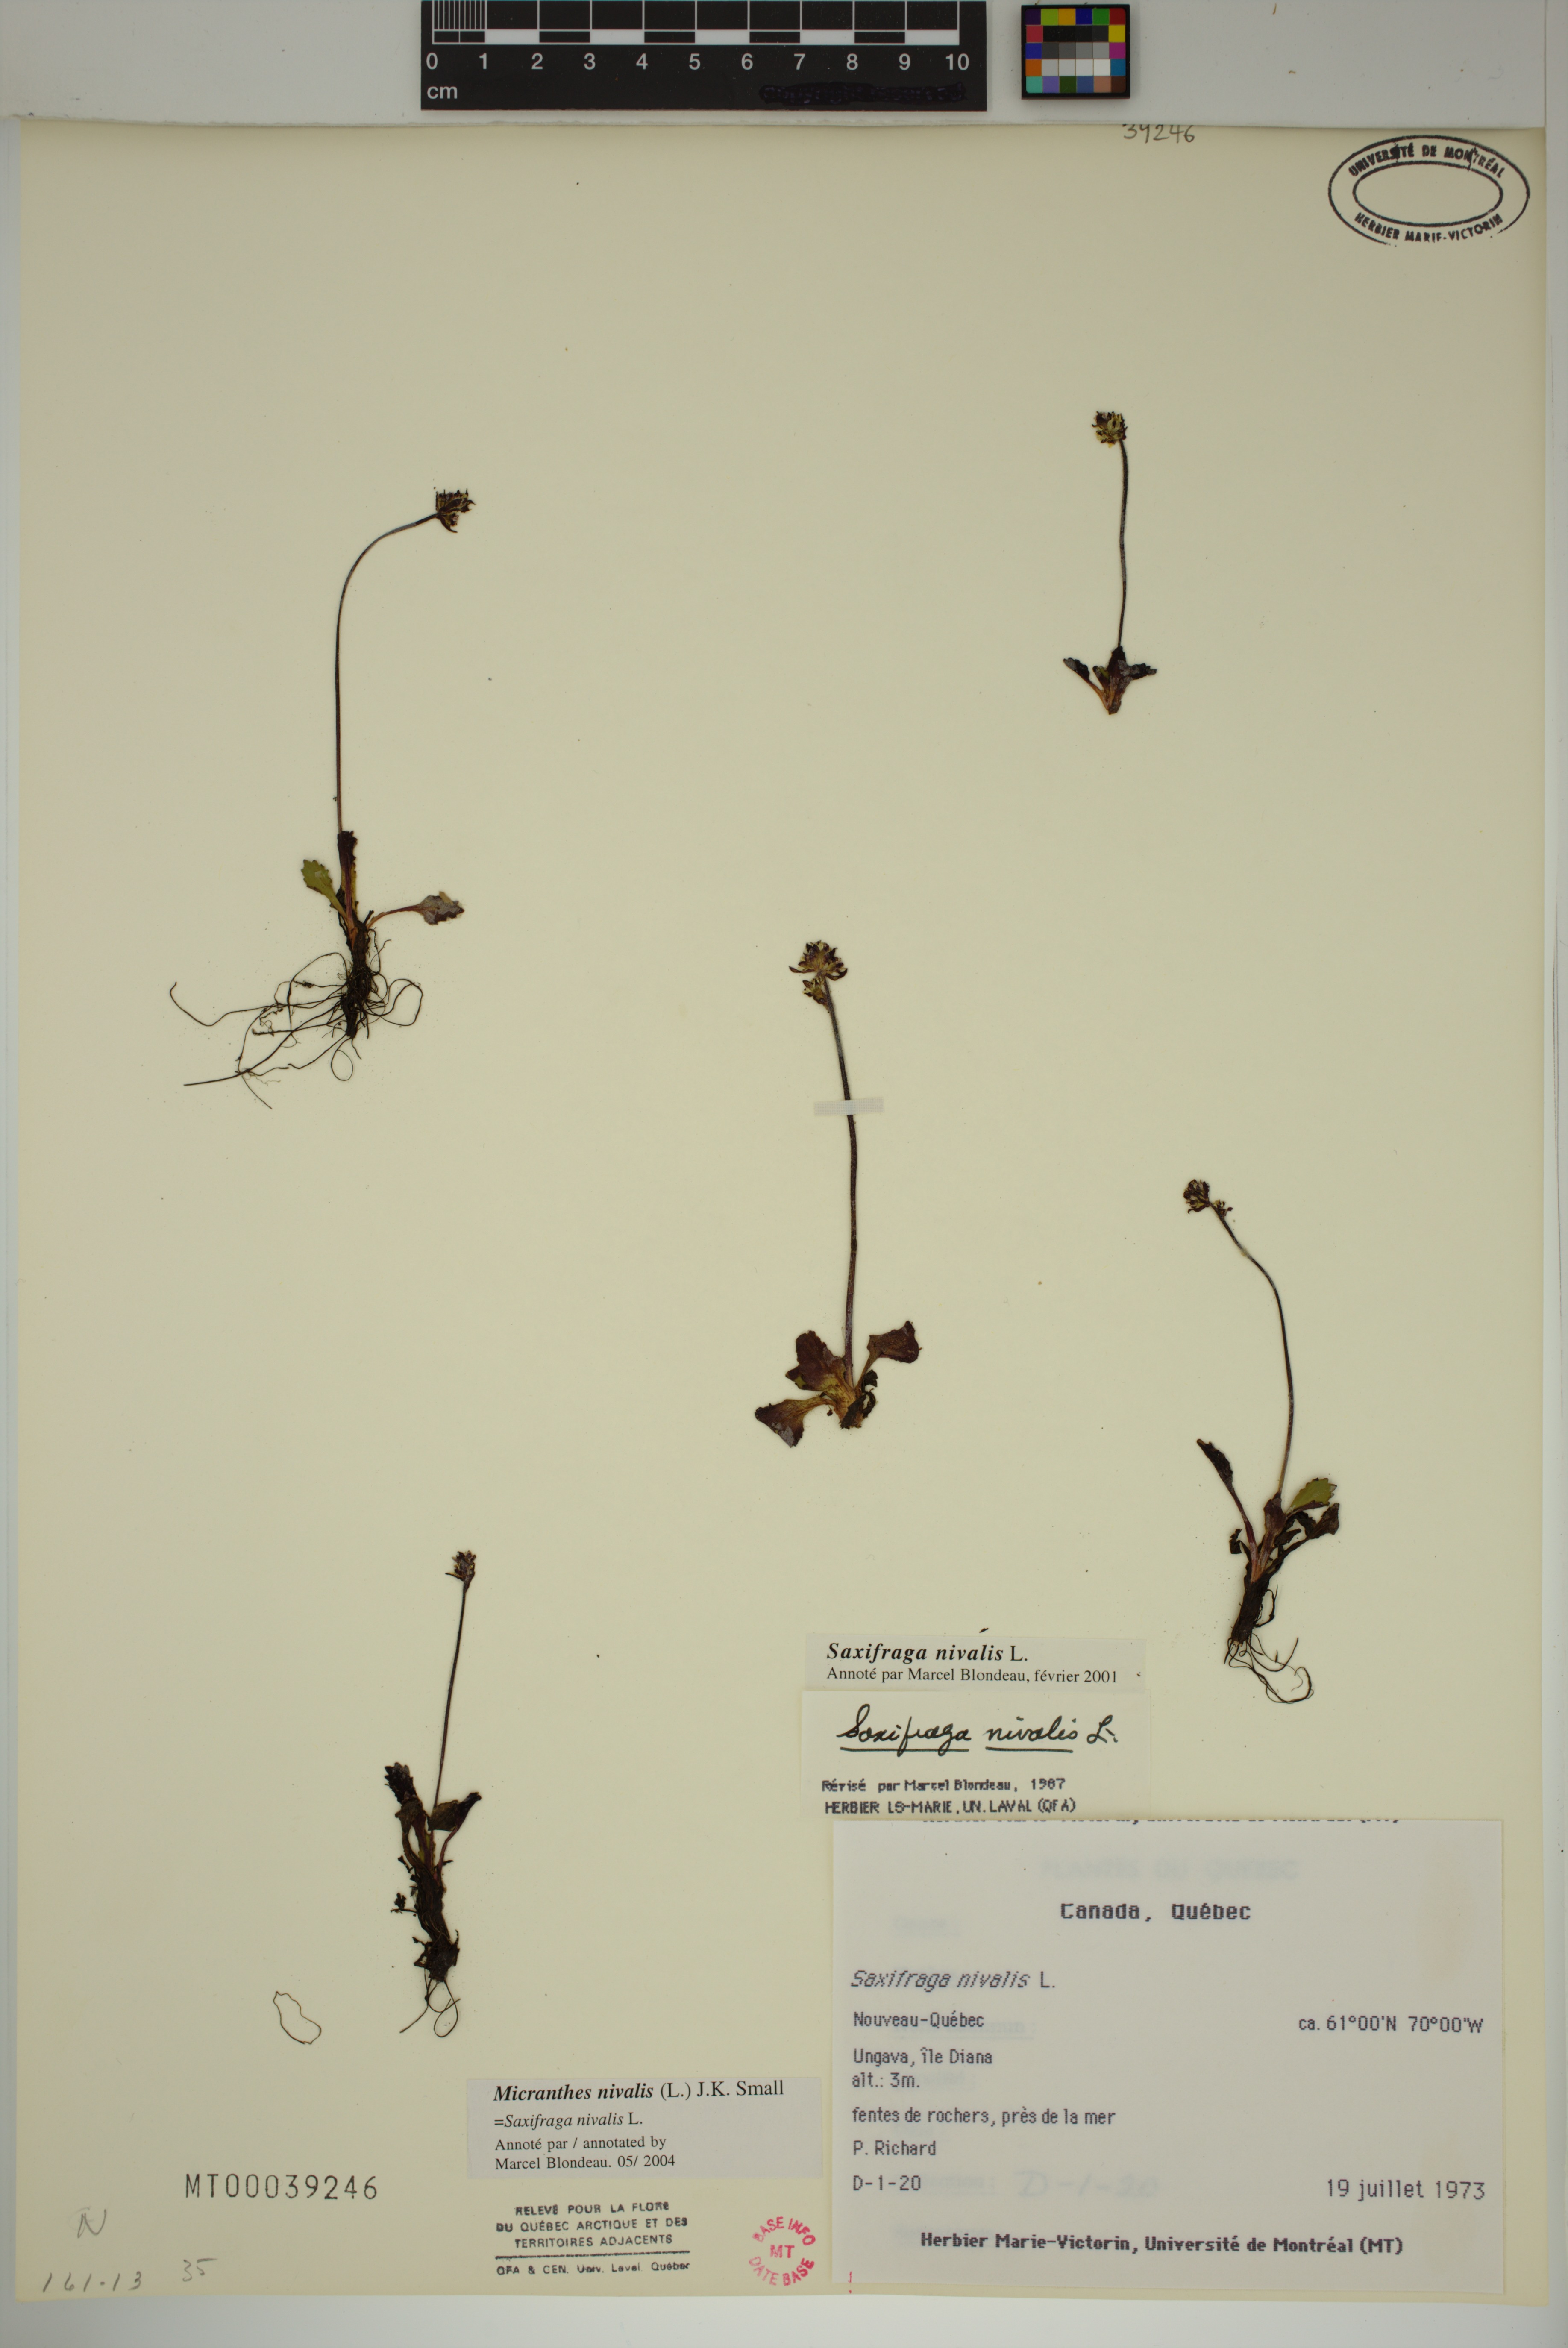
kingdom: Plantae
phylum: Tracheophyta
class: Magnoliopsida
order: Saxifragales
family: Saxifragaceae
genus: Micranthes
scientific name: Micranthes nivalis
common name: Alpine saxifrage
